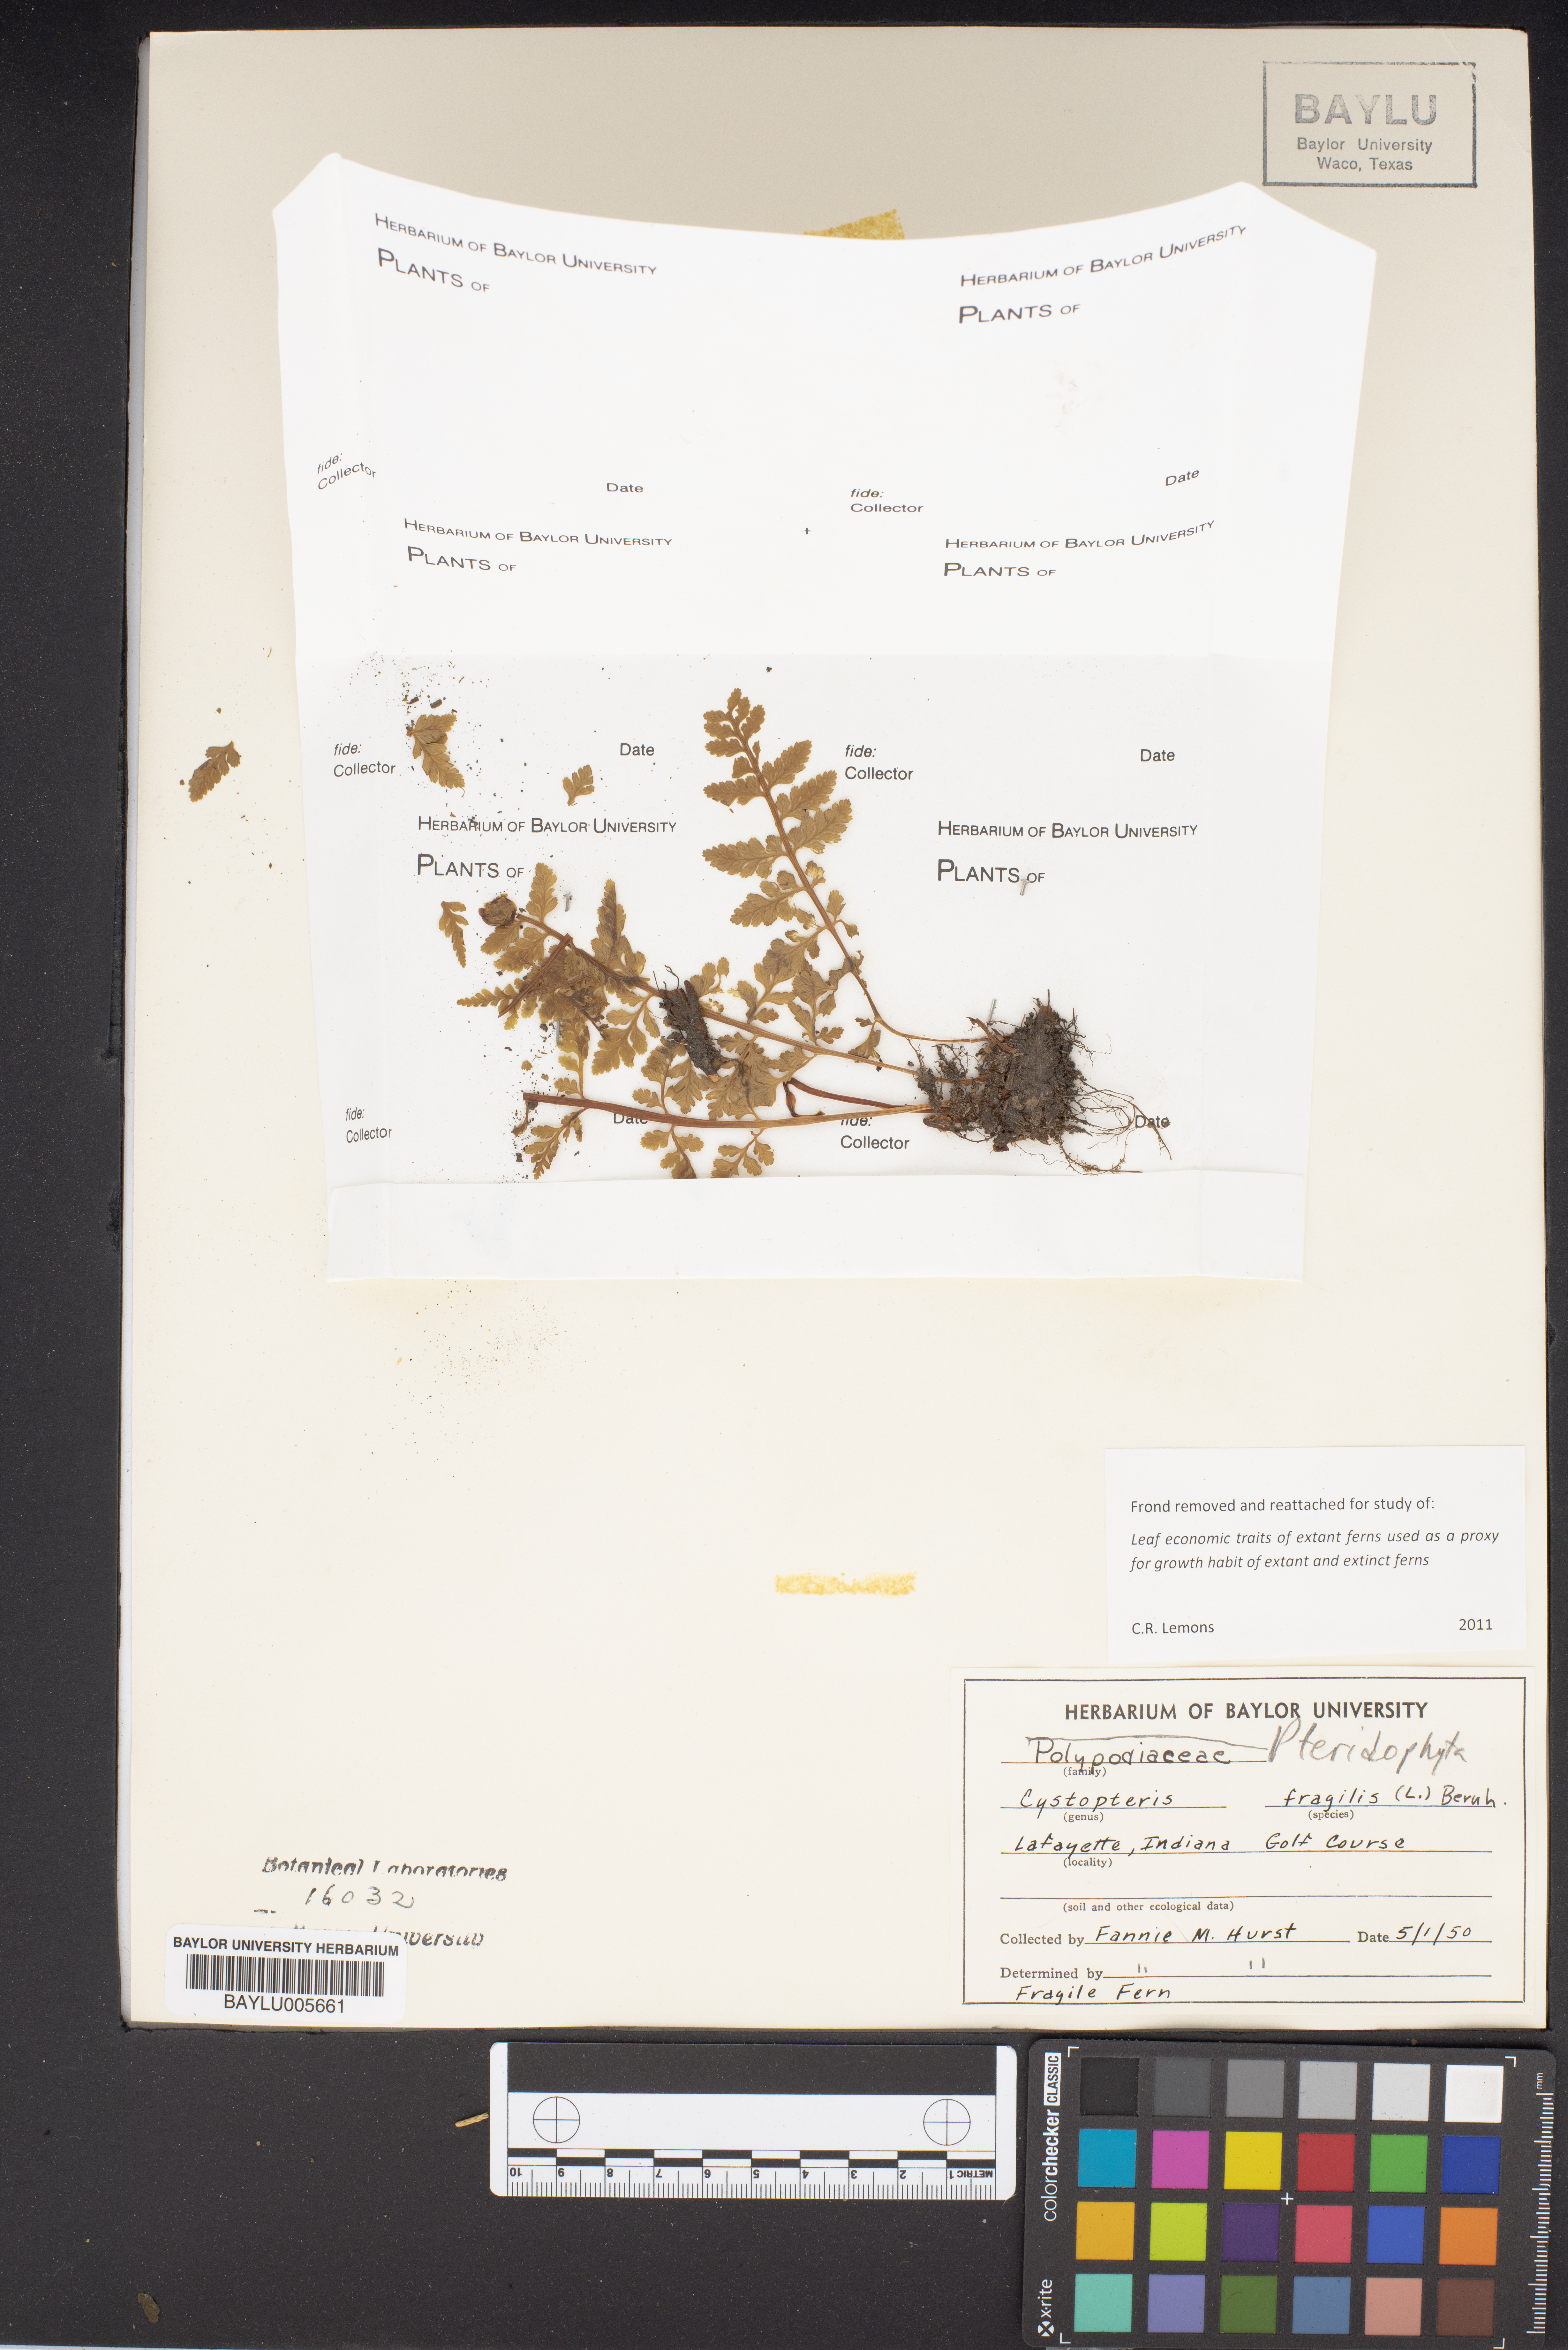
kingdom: Plantae
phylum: Tracheophyta
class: Polypodiopsida
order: Polypodiales
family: Cystopteridaceae
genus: Cystopteris
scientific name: Cystopteris fragilis
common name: Brittle bladder fern
